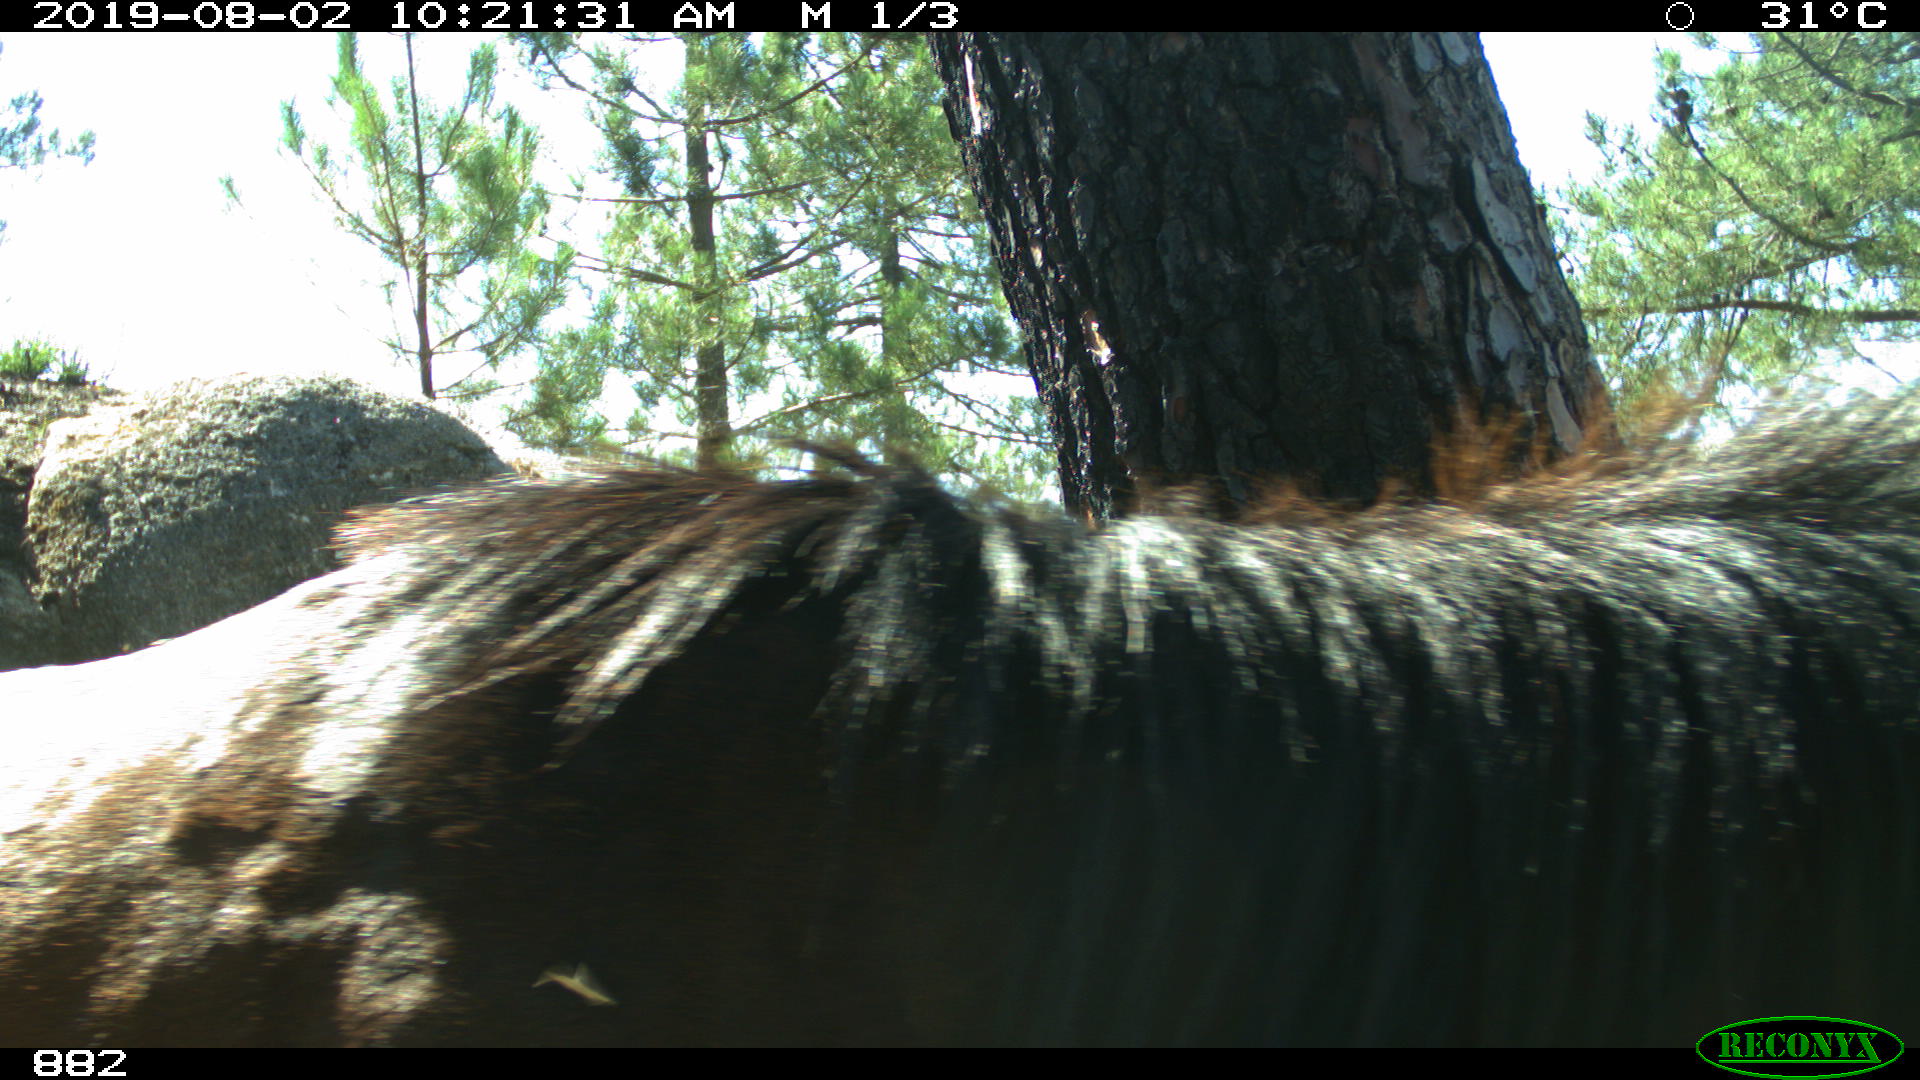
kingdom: Animalia
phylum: Chordata
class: Mammalia
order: Perissodactyla
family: Equidae
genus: Equus
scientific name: Equus caballus
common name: Horse
